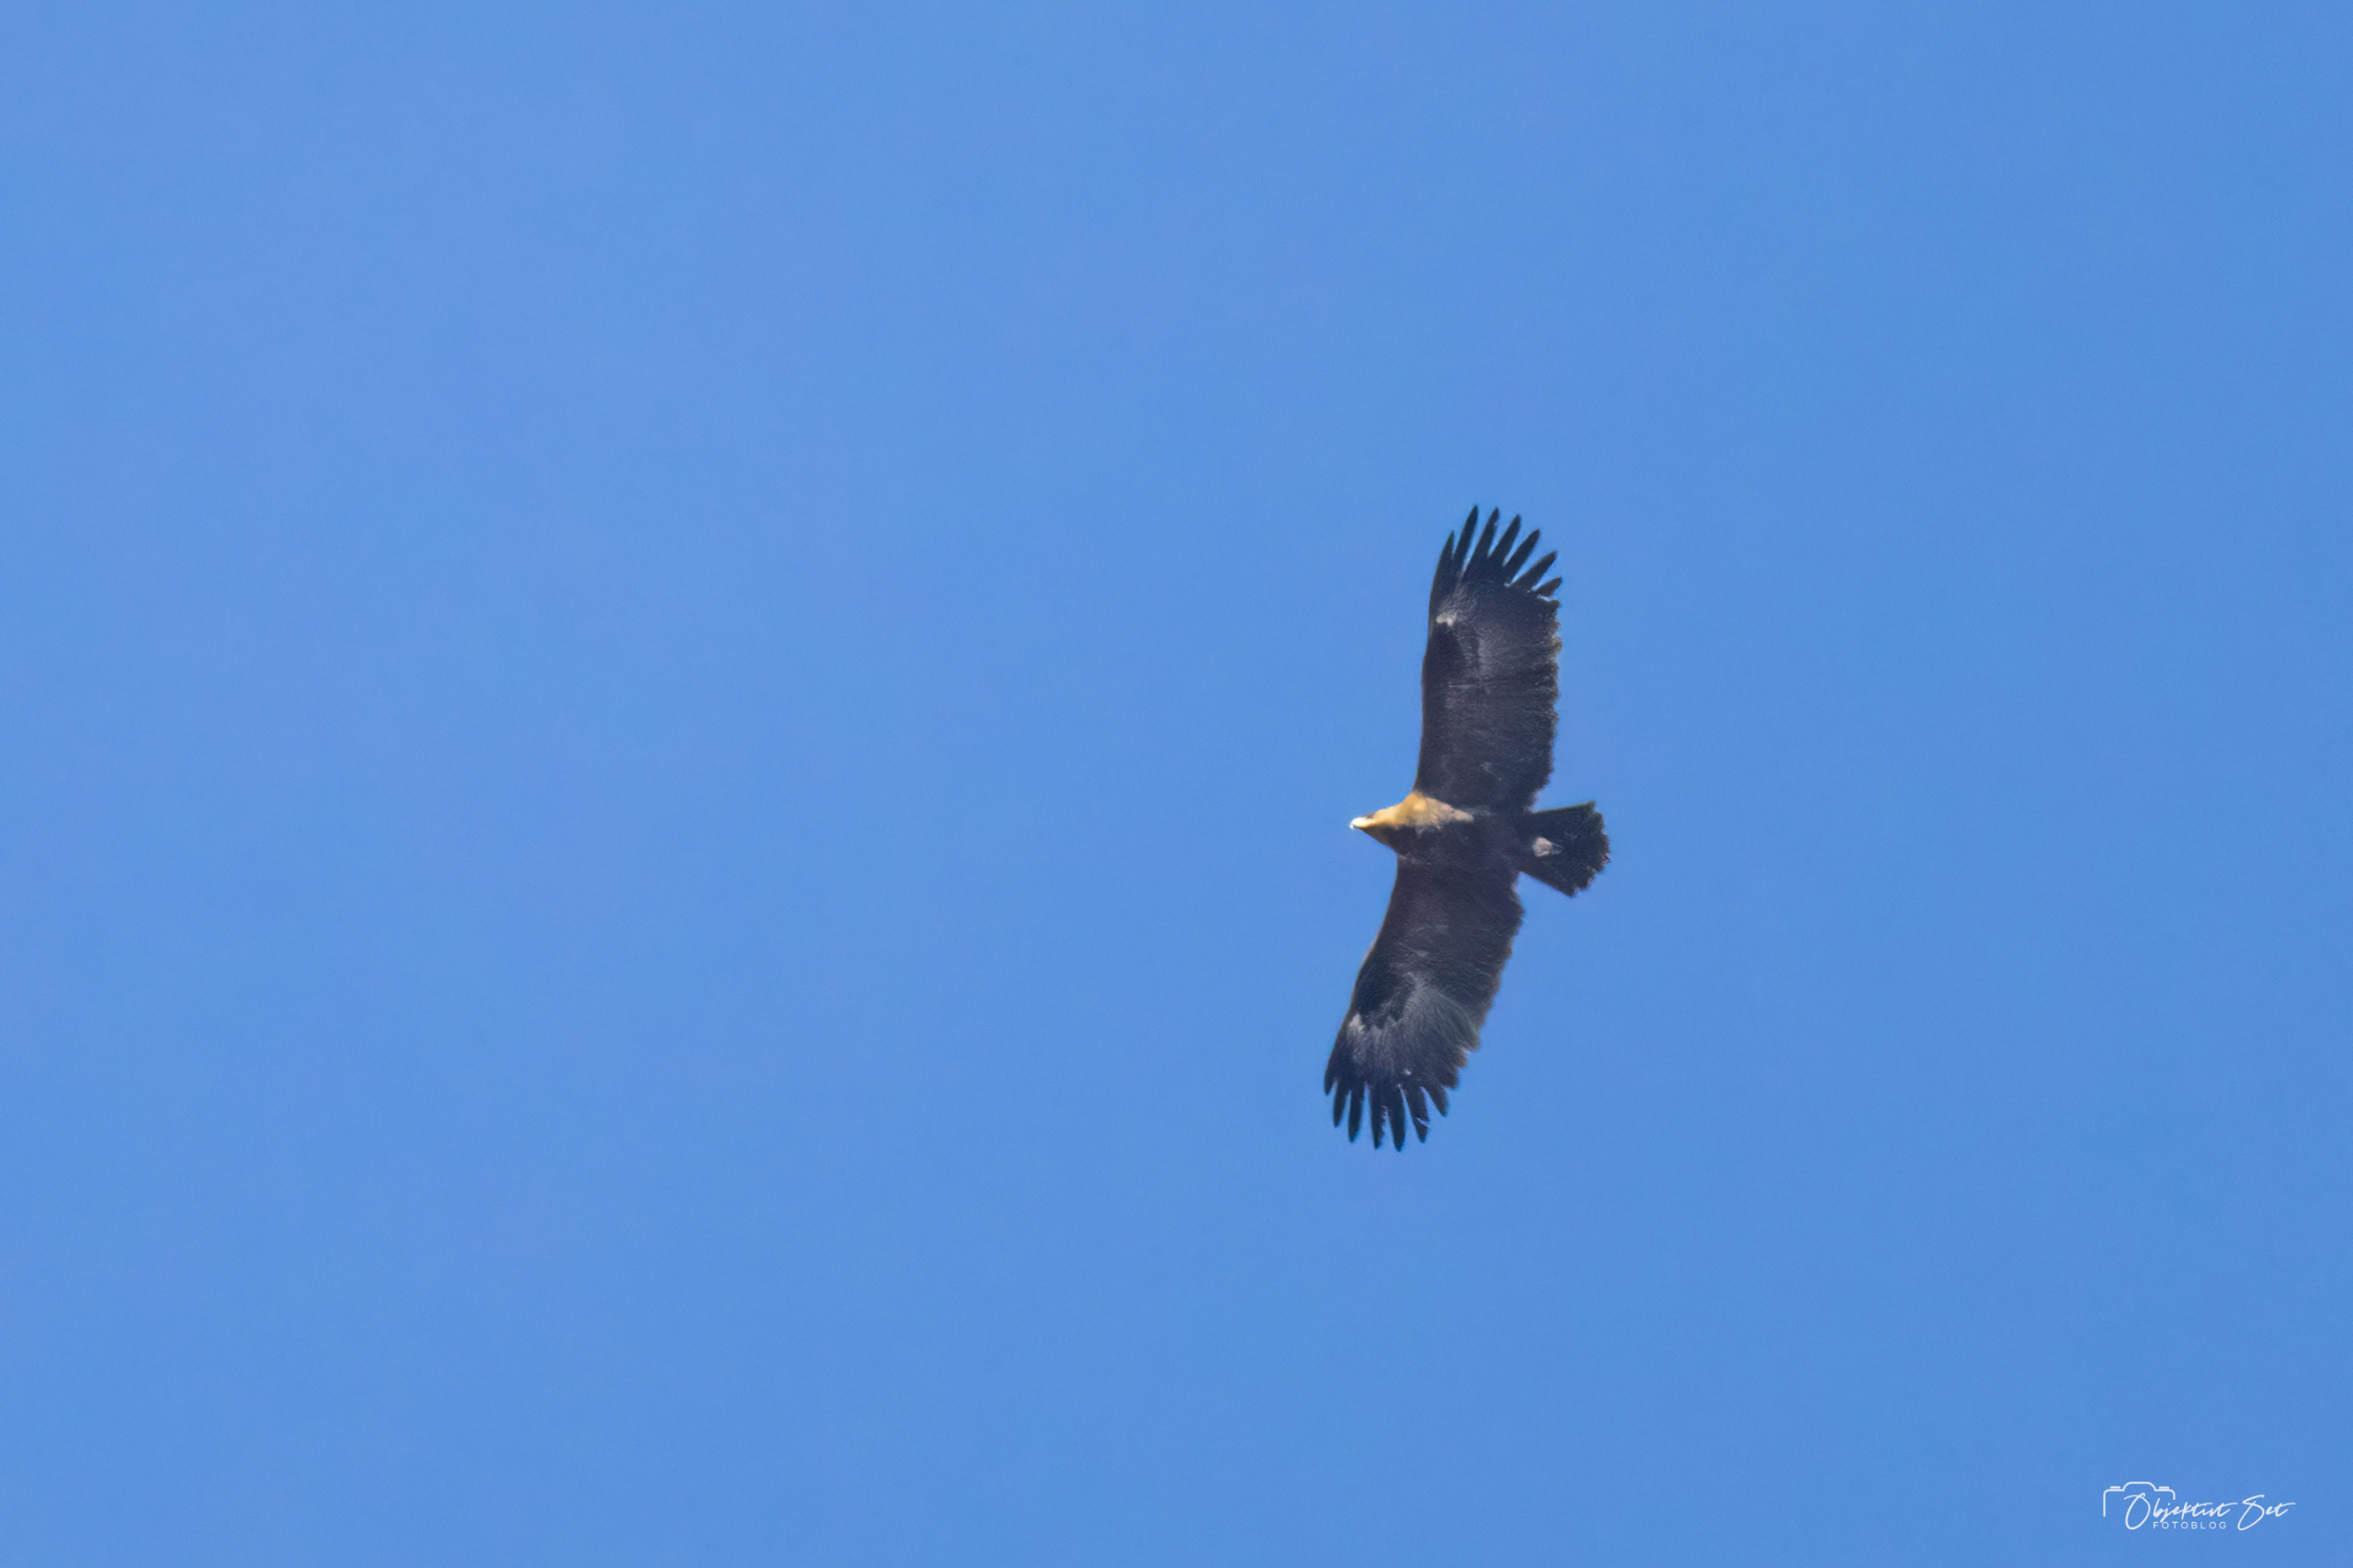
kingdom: Animalia
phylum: Chordata
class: Aves
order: Accipitriformes
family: Accipitridae
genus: Aquila
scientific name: Aquila clanga
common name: Stor skrigeørn
